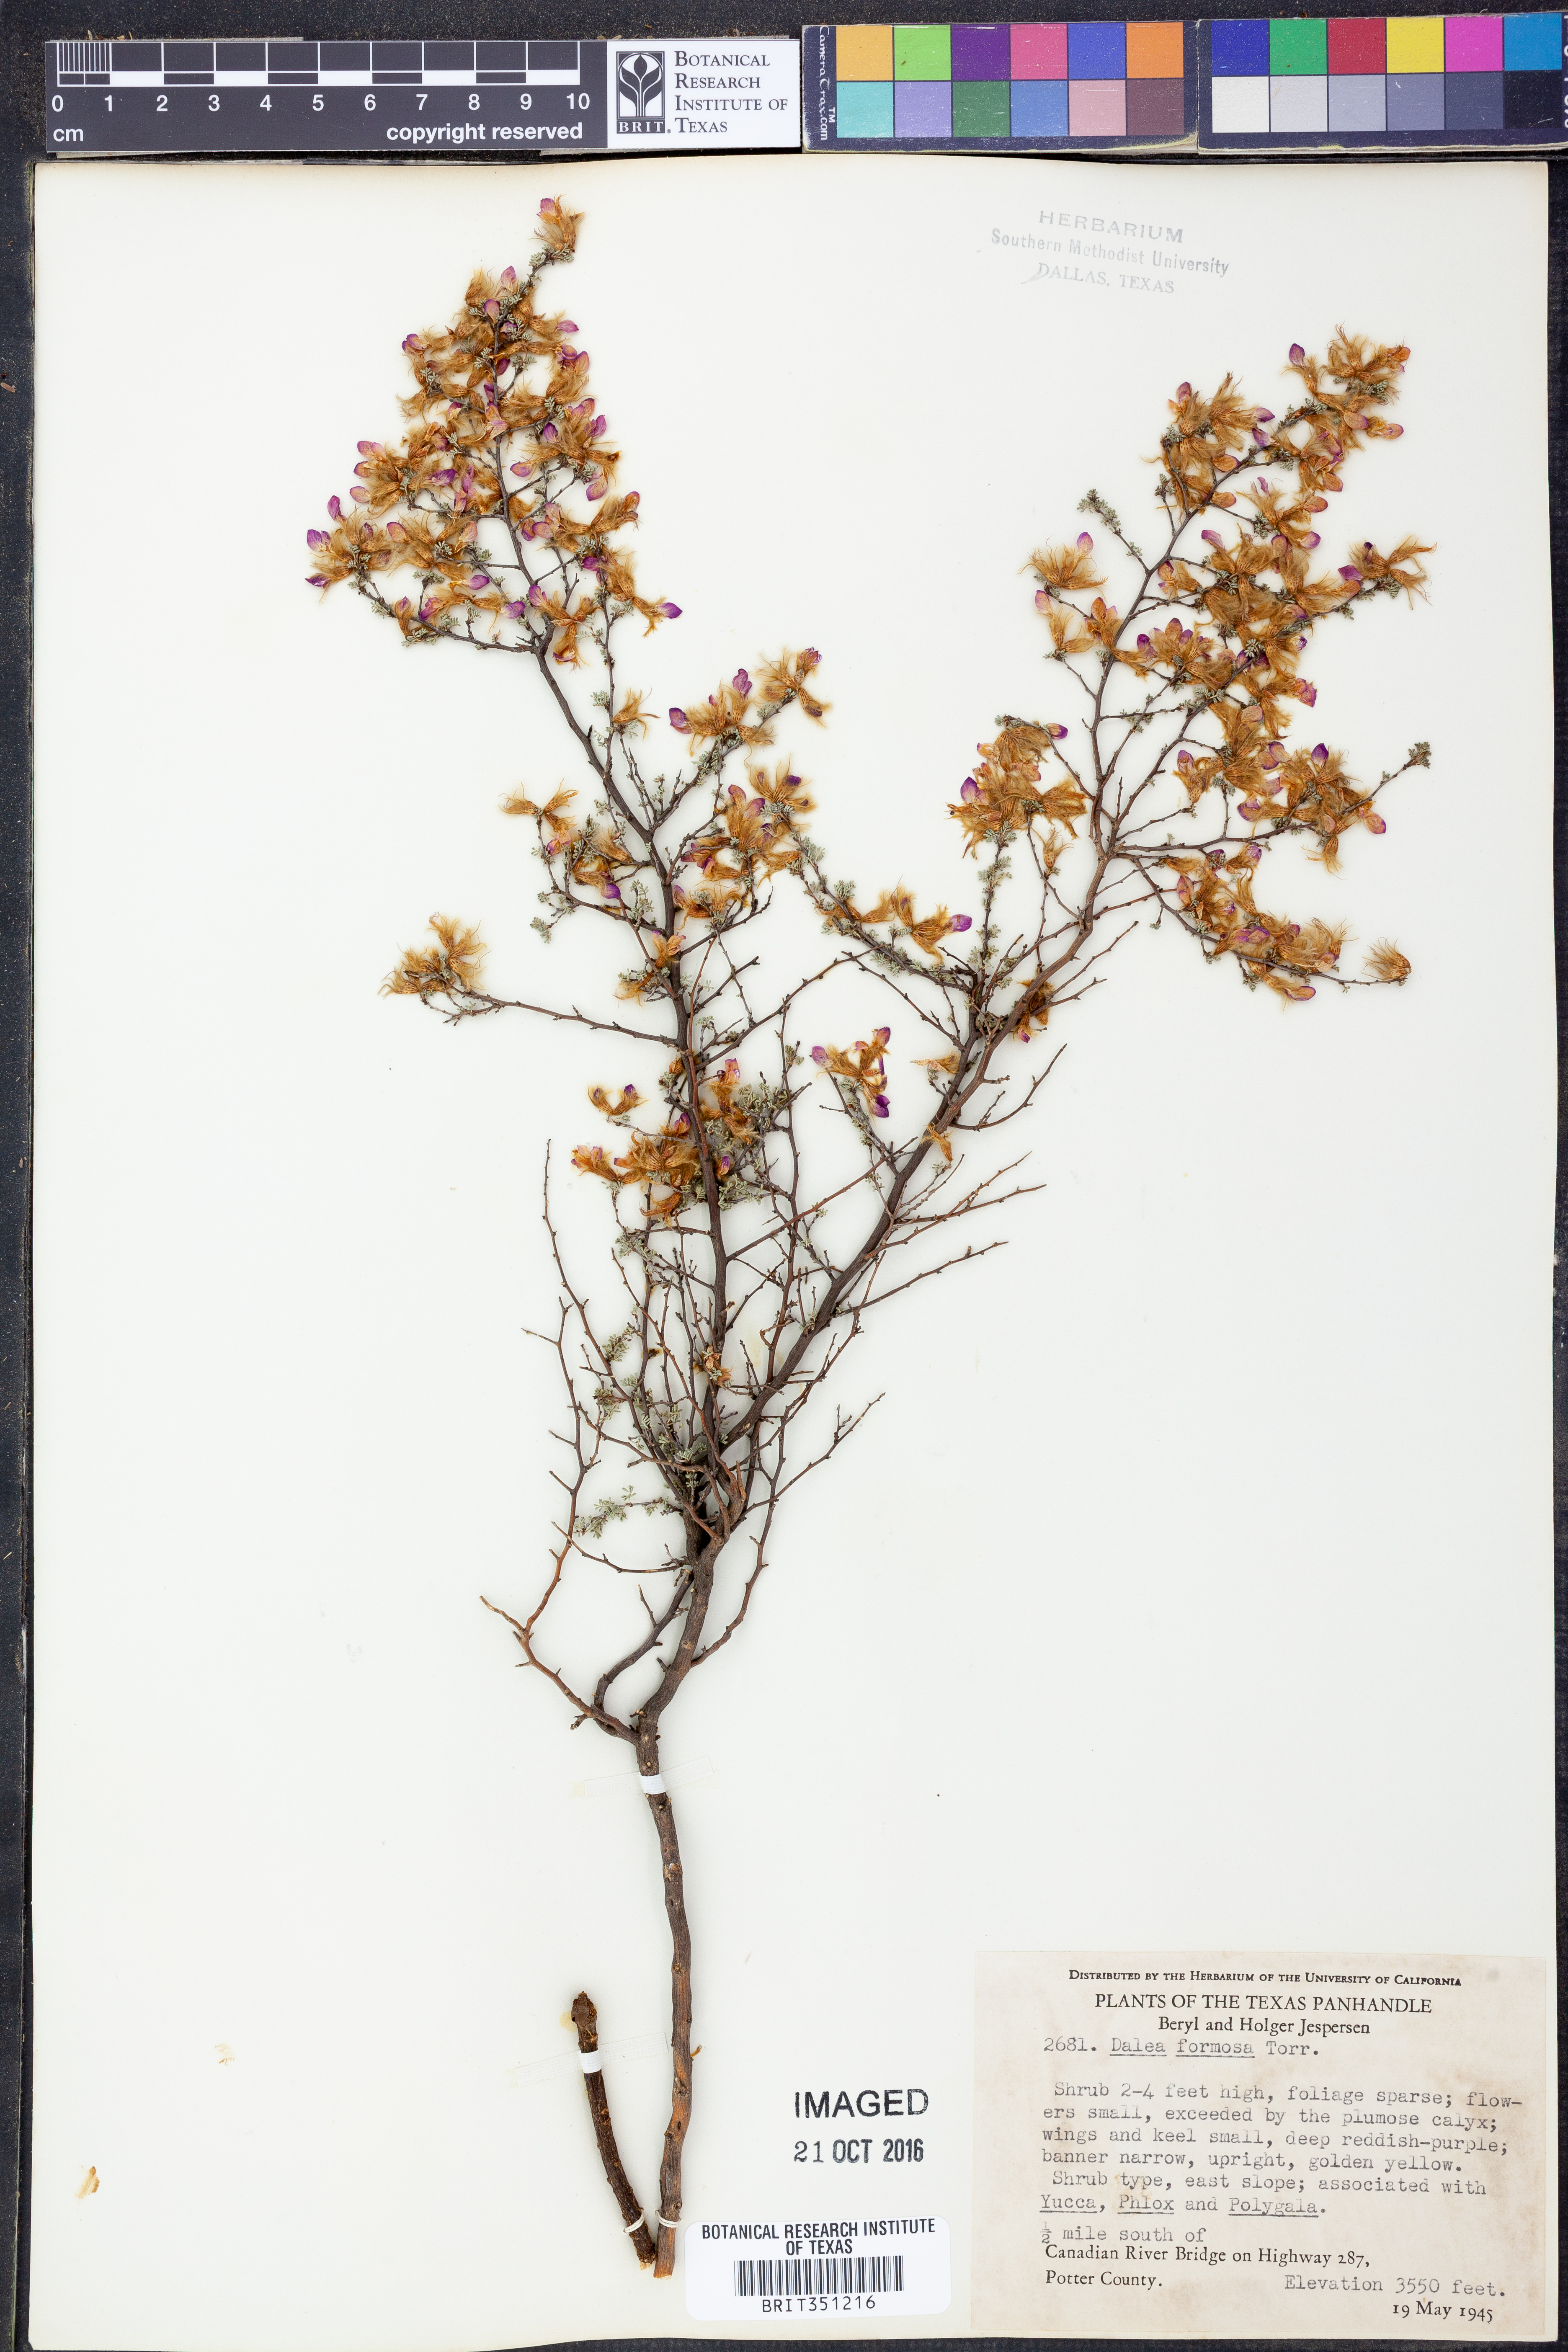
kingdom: Plantae
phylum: Tracheophyta
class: Magnoliopsida
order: Fabales
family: Fabaceae
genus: Dalea
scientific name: Dalea formosa
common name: Feather-plume dalea
